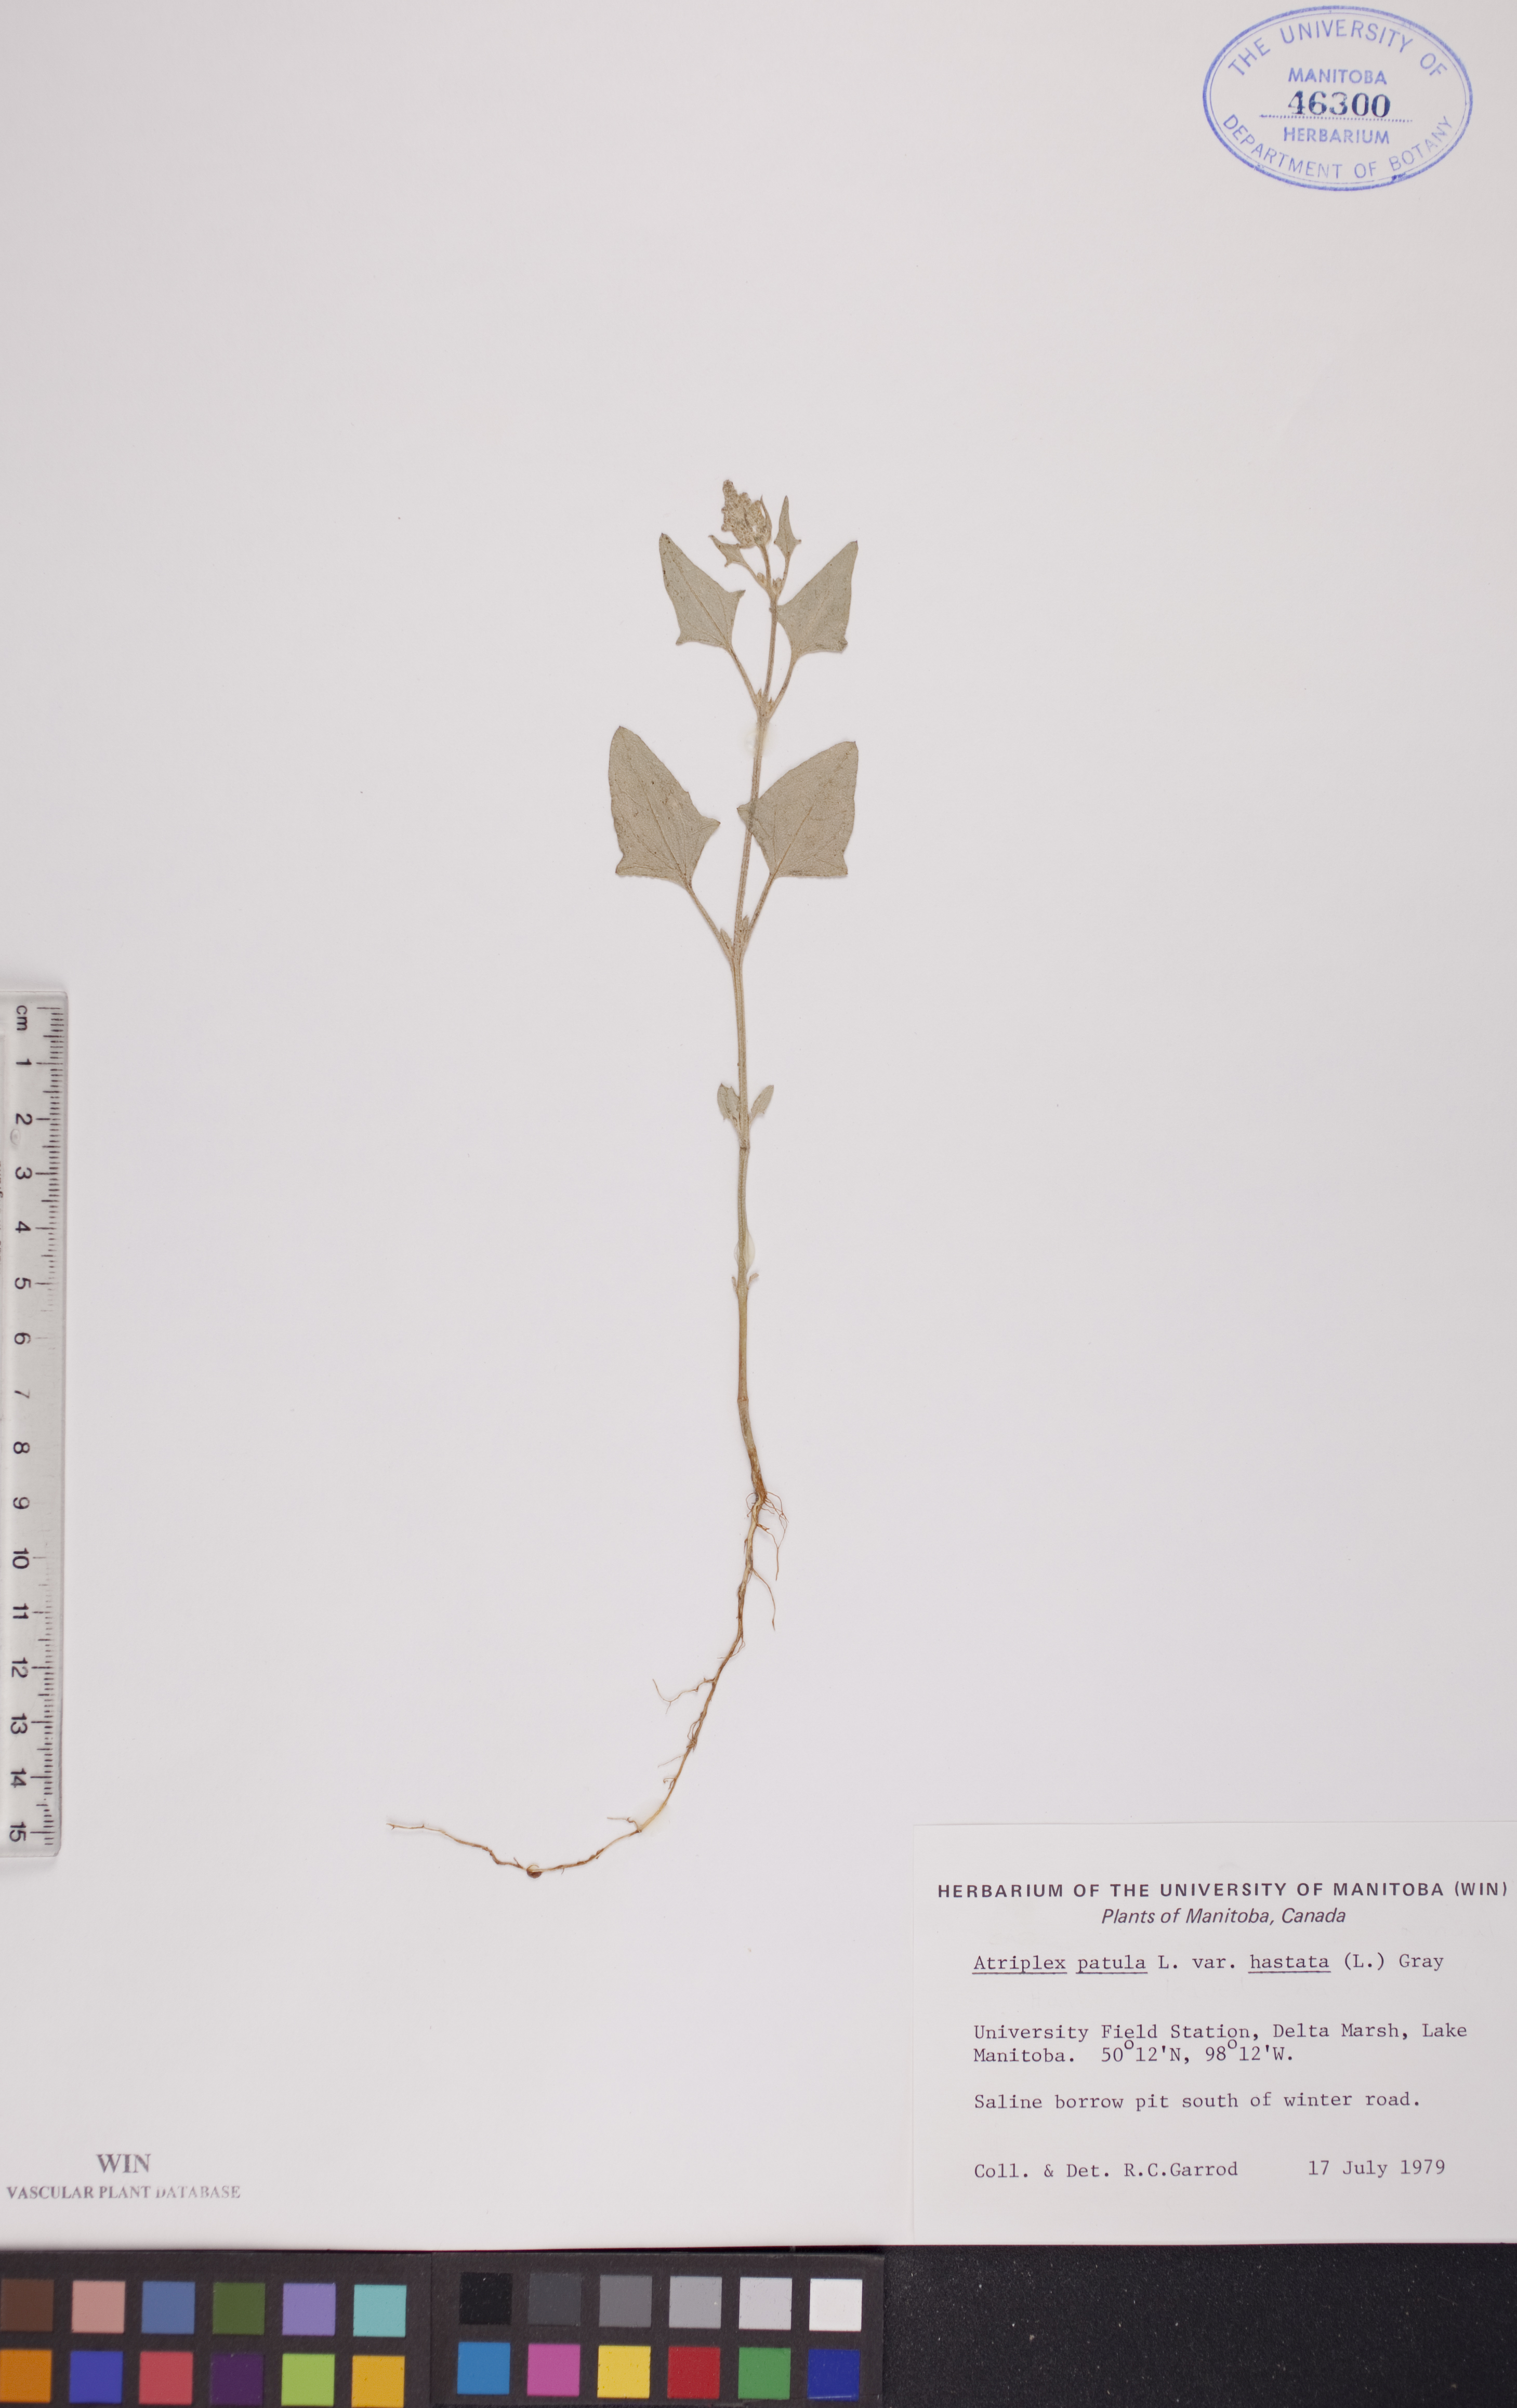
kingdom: Plantae
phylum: Tracheophyta
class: Magnoliopsida
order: Caryophyllales
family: Amaranthaceae
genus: Atriplex
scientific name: Atriplex
